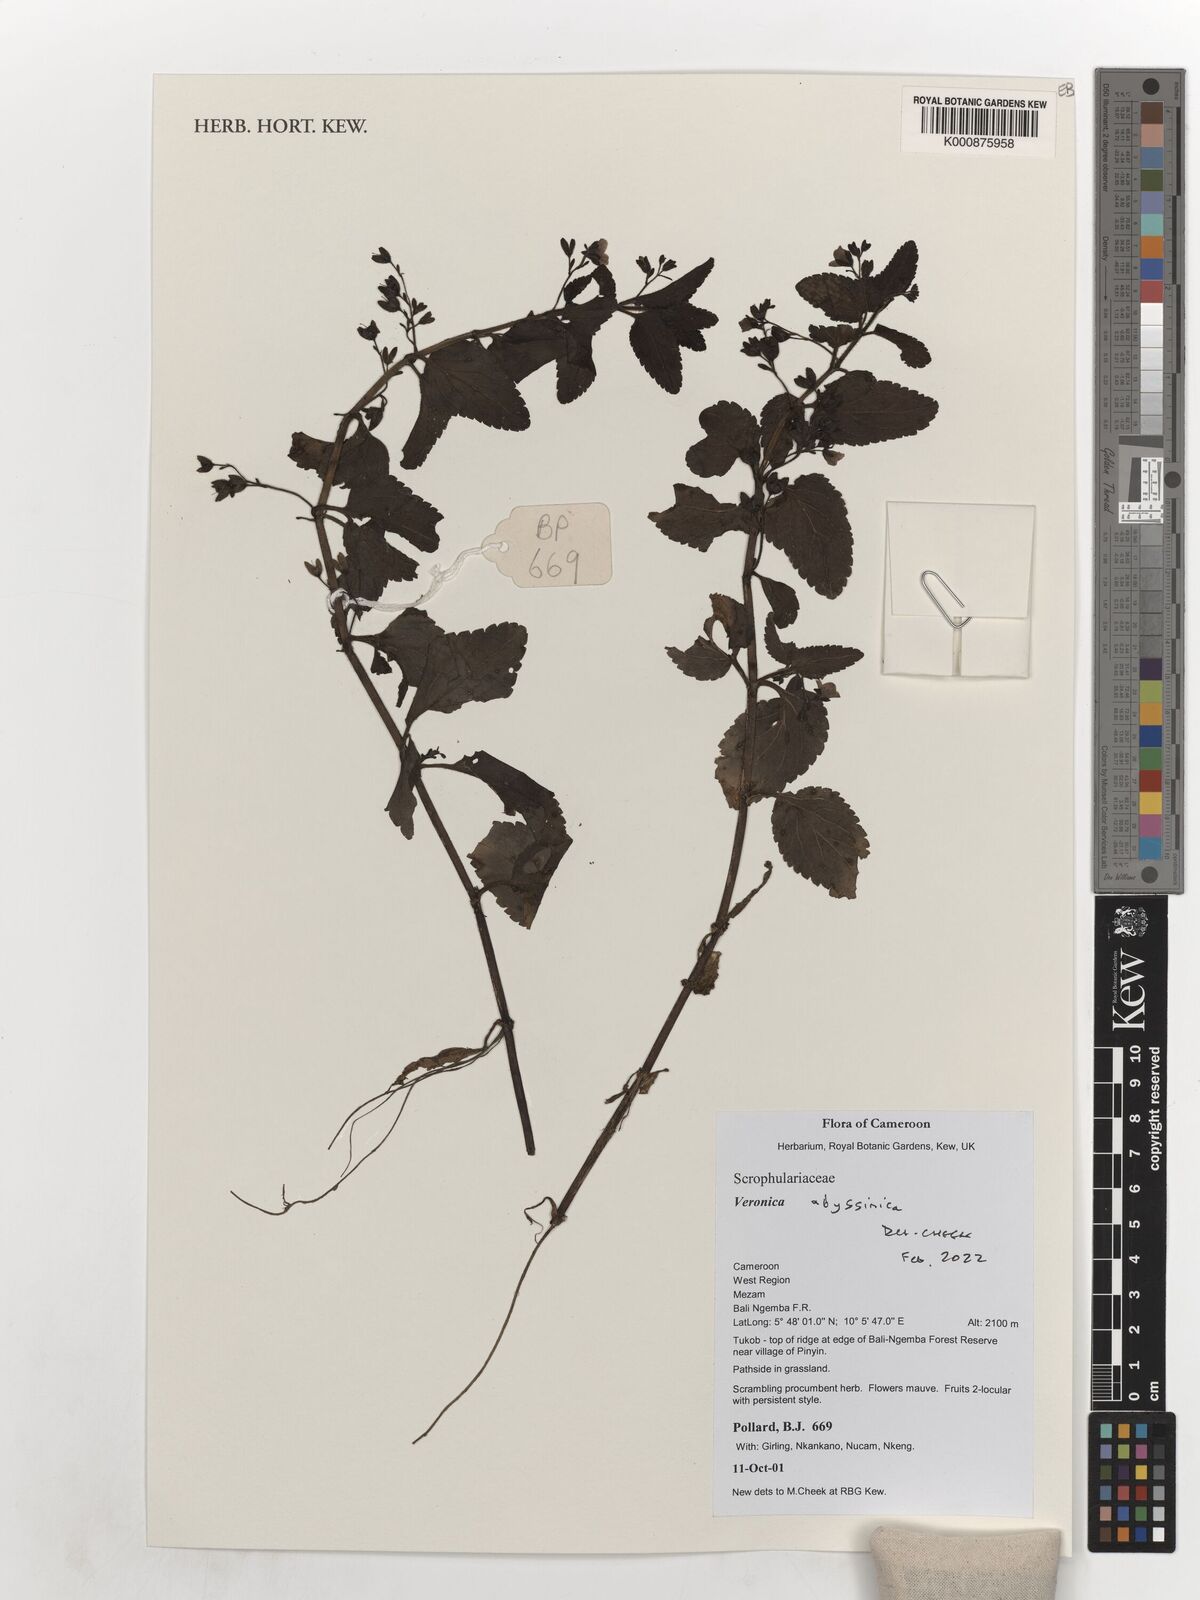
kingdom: Plantae
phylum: Tracheophyta
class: Magnoliopsida
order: Lamiales
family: Plantaginaceae
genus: Veronica
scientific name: Veronica abyssinica
